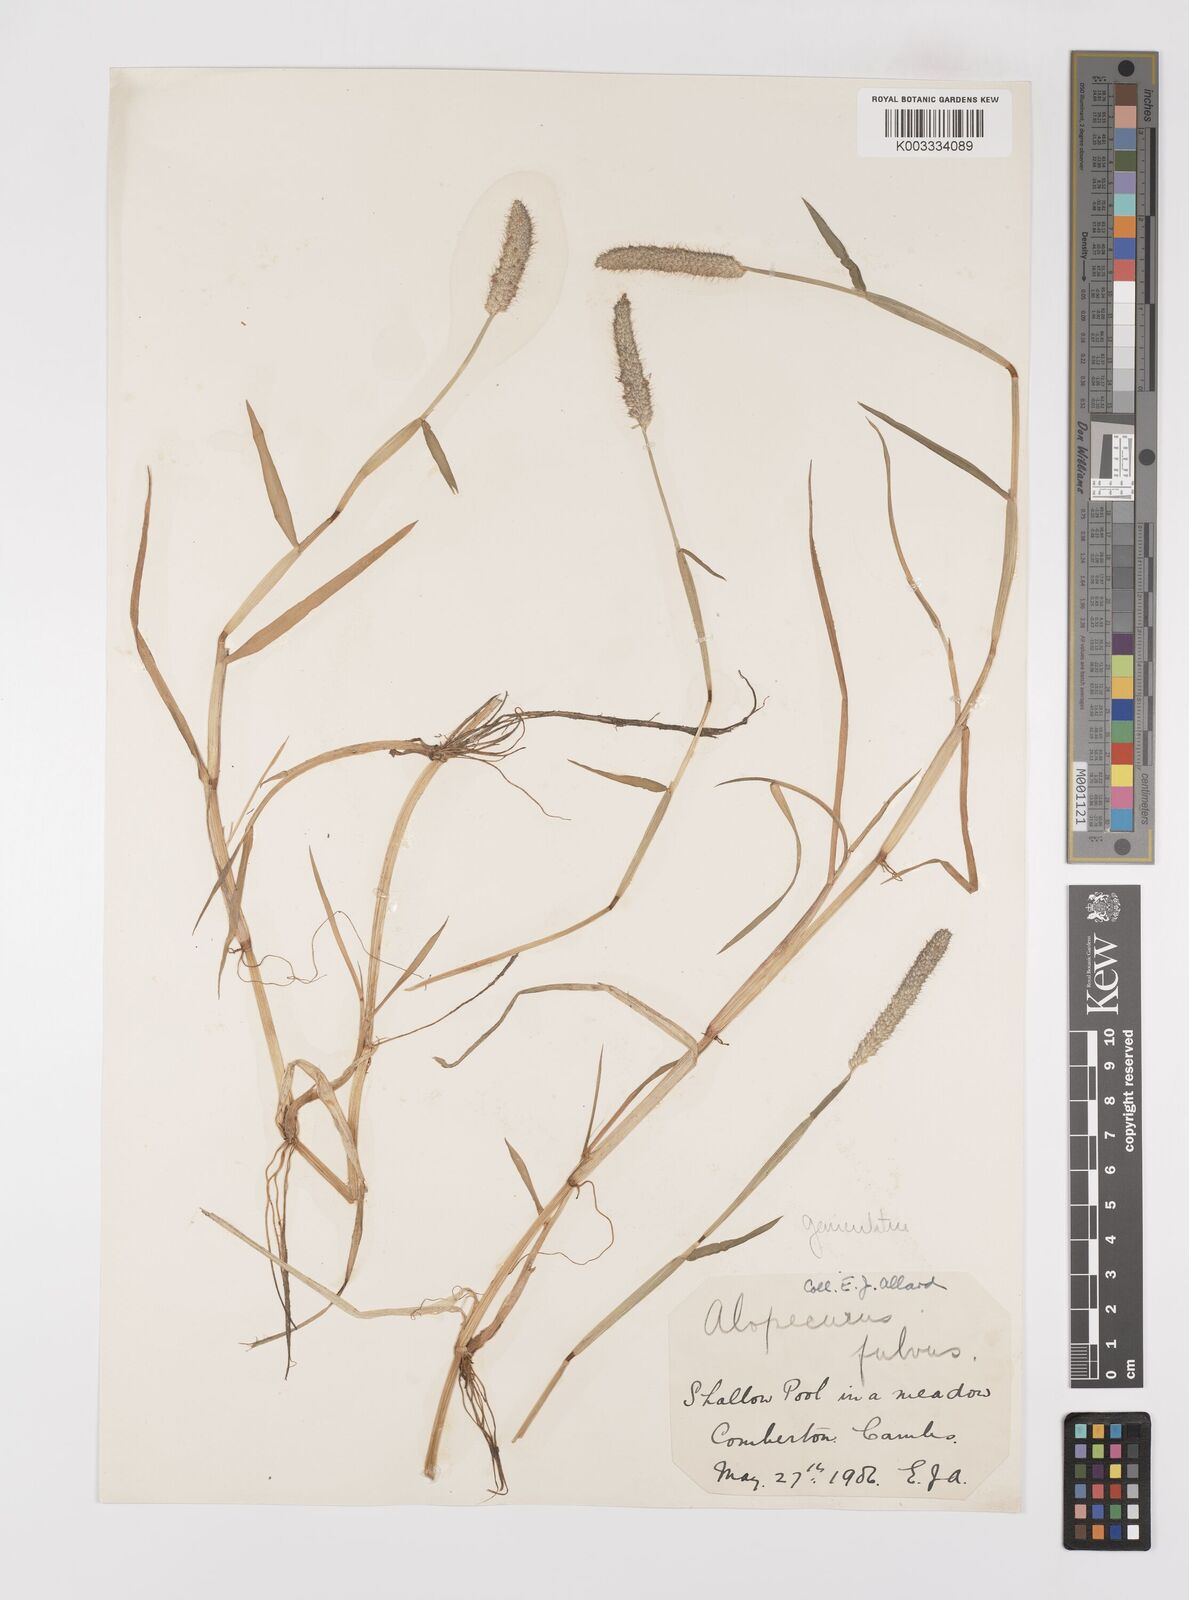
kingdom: Plantae
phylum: Tracheophyta
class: Liliopsida
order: Poales
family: Poaceae
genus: Alopecurus
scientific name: Alopecurus geniculatus
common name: Water foxtail
